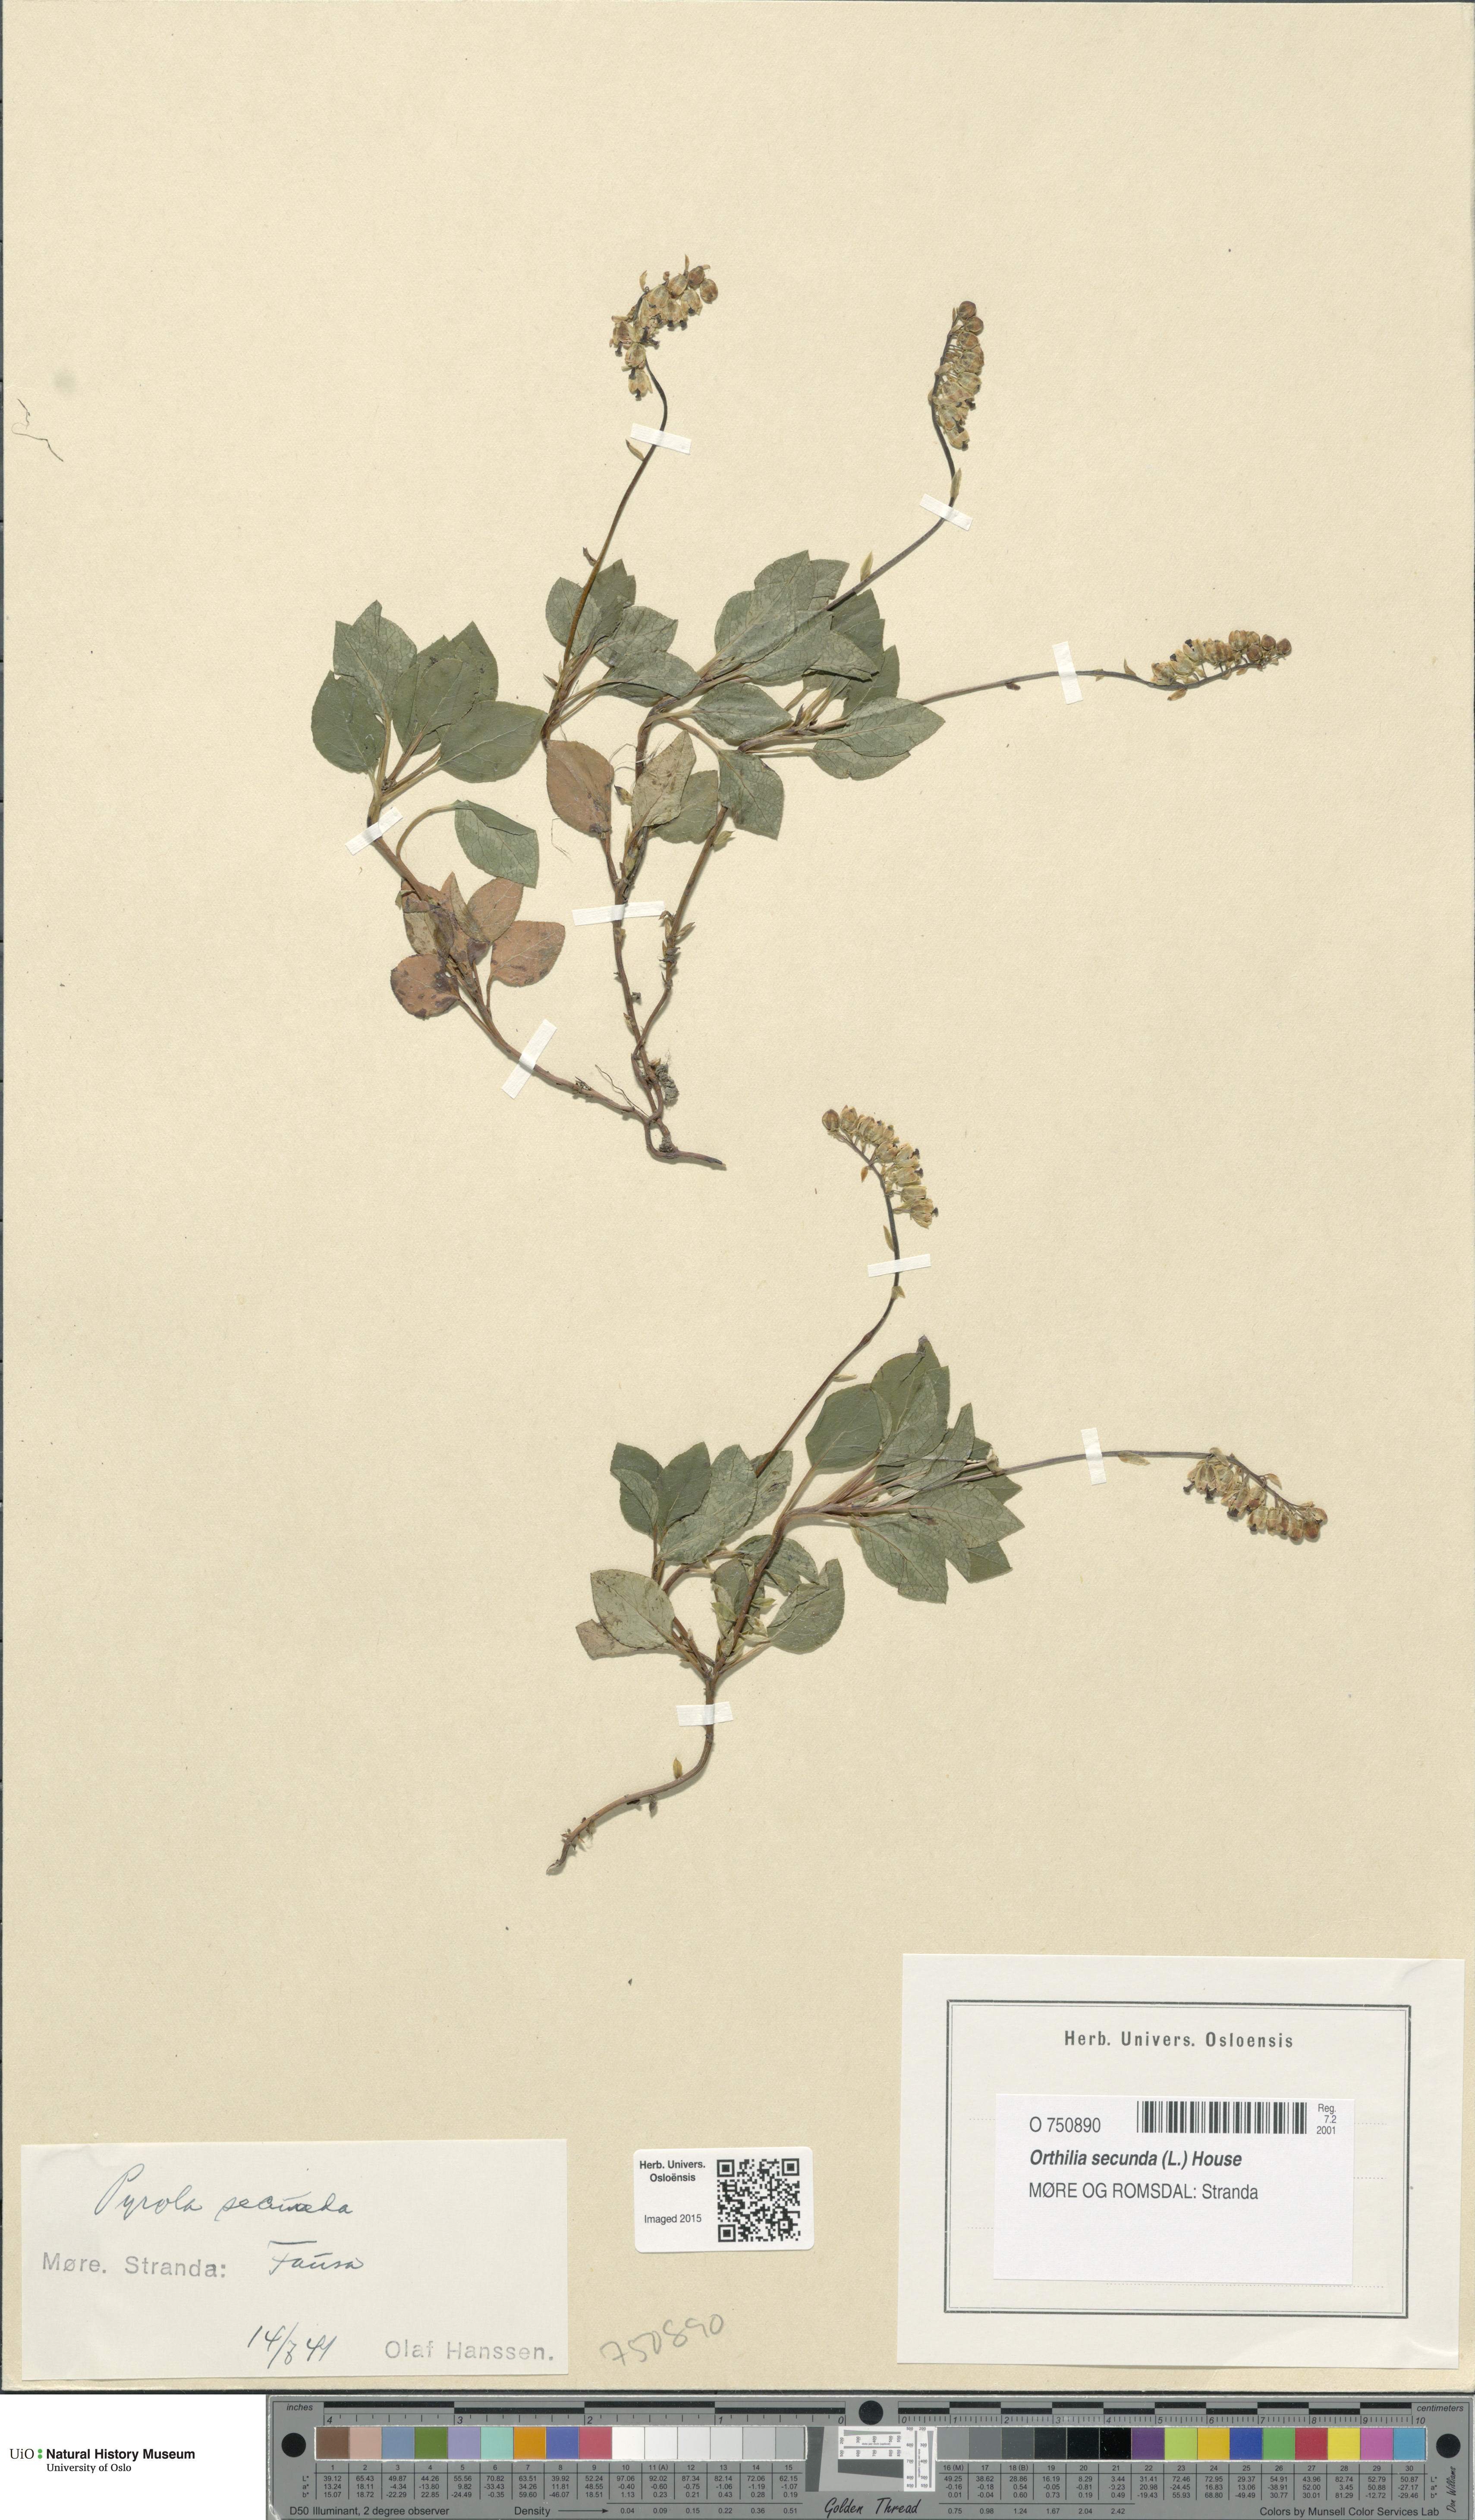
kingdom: Plantae
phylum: Tracheophyta
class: Magnoliopsida
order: Ericales
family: Ericaceae
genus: Orthilia
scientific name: Orthilia secunda
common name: One-sided orthilia
